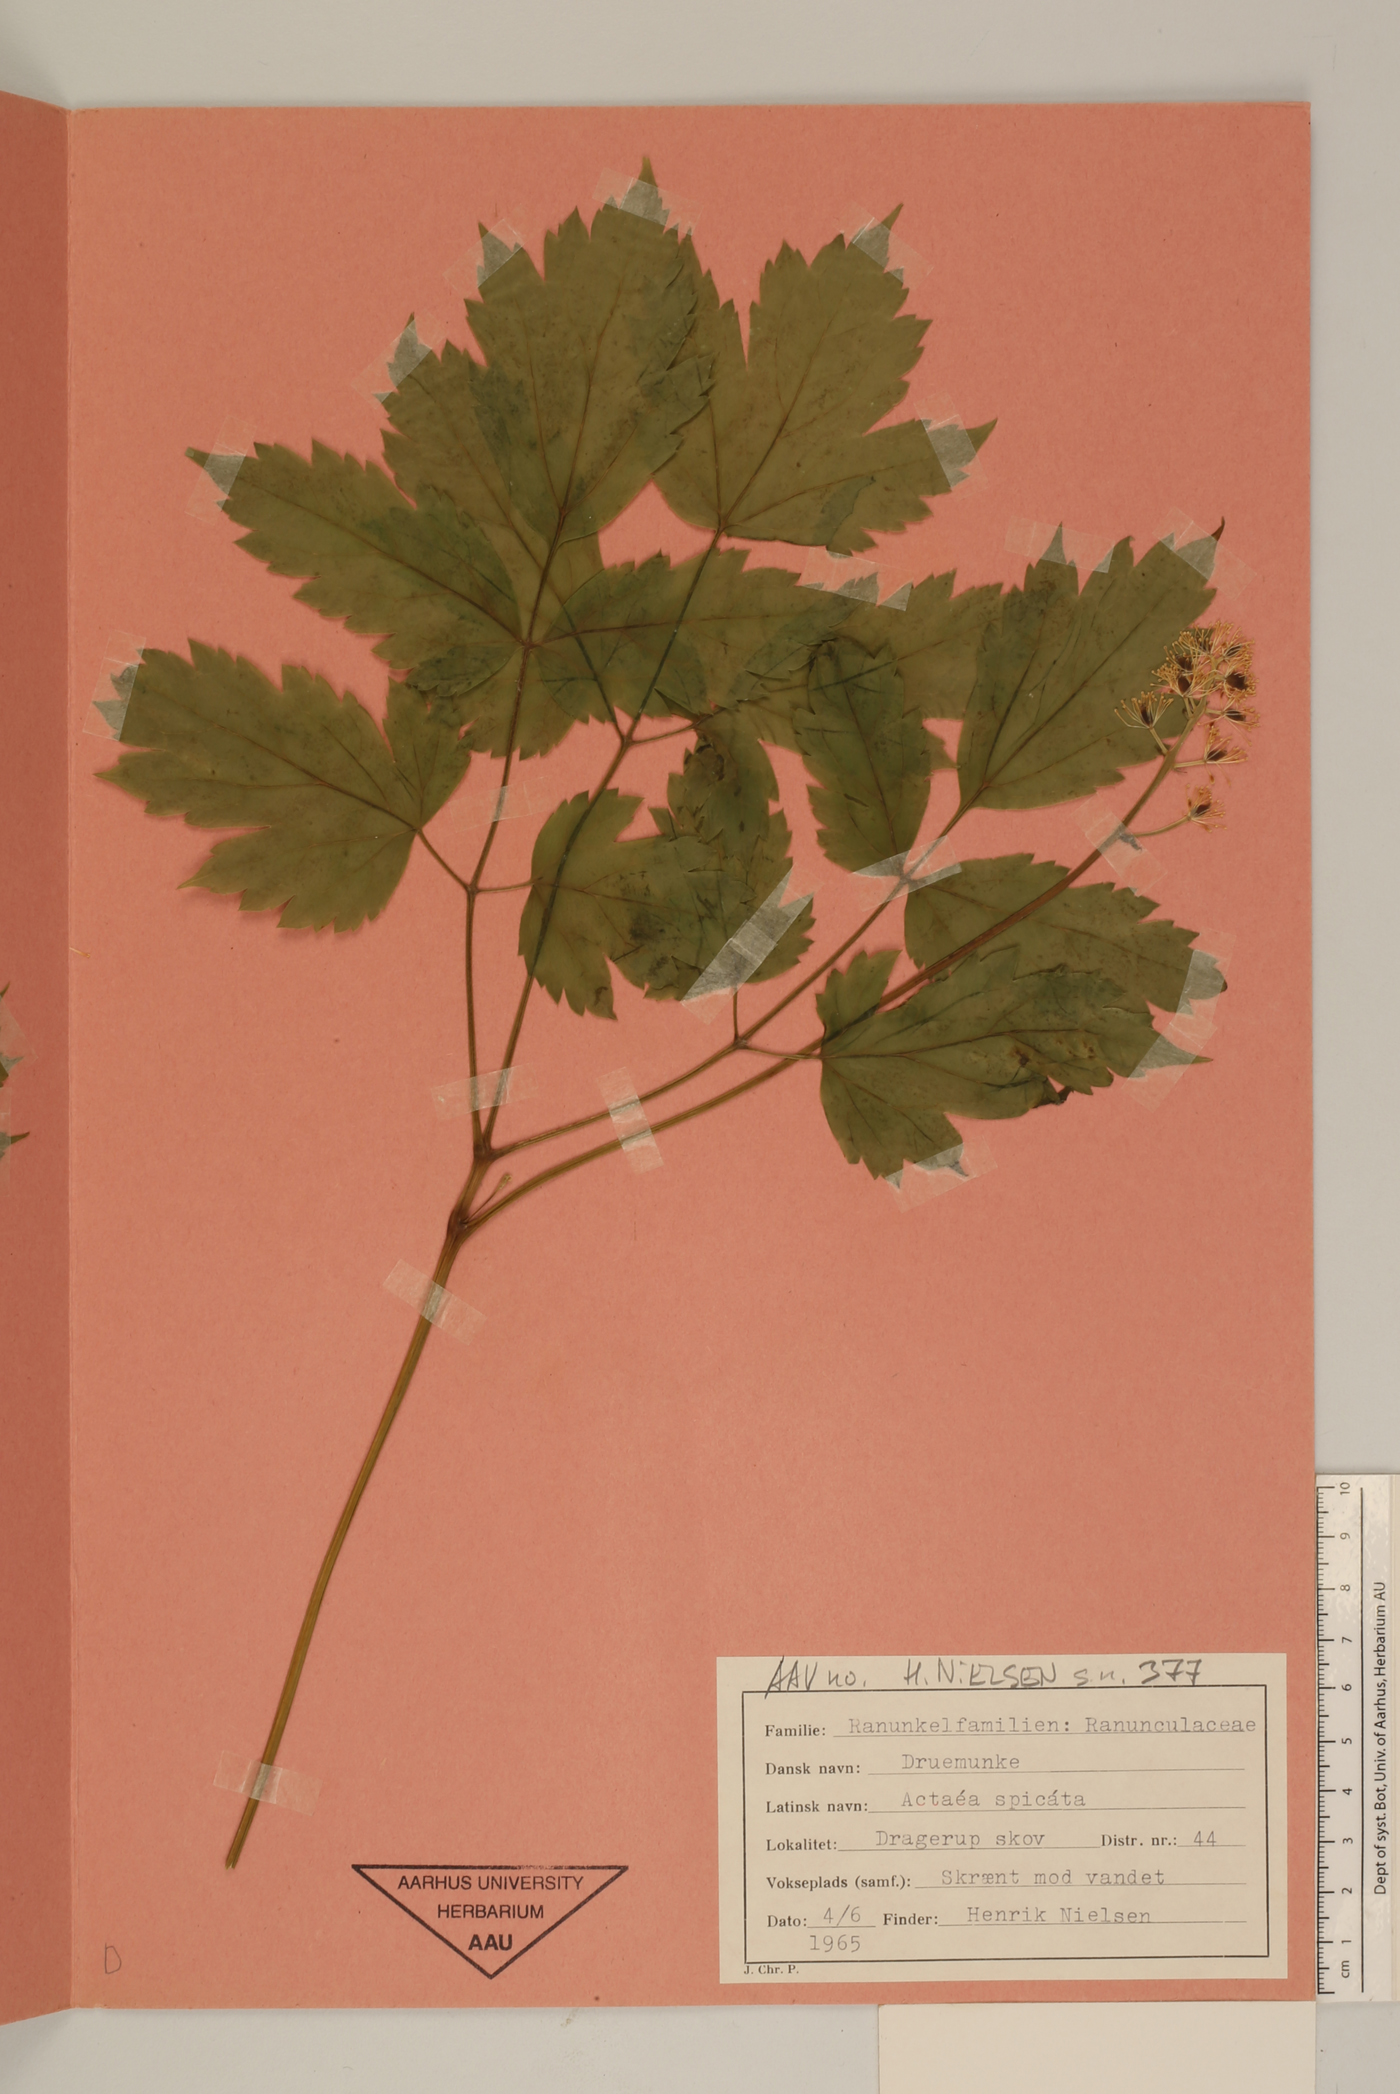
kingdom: Plantae
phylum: Tracheophyta
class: Magnoliopsida
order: Ranunculales
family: Ranunculaceae
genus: Actaea
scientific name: Actaea spicata
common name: Baneberry
